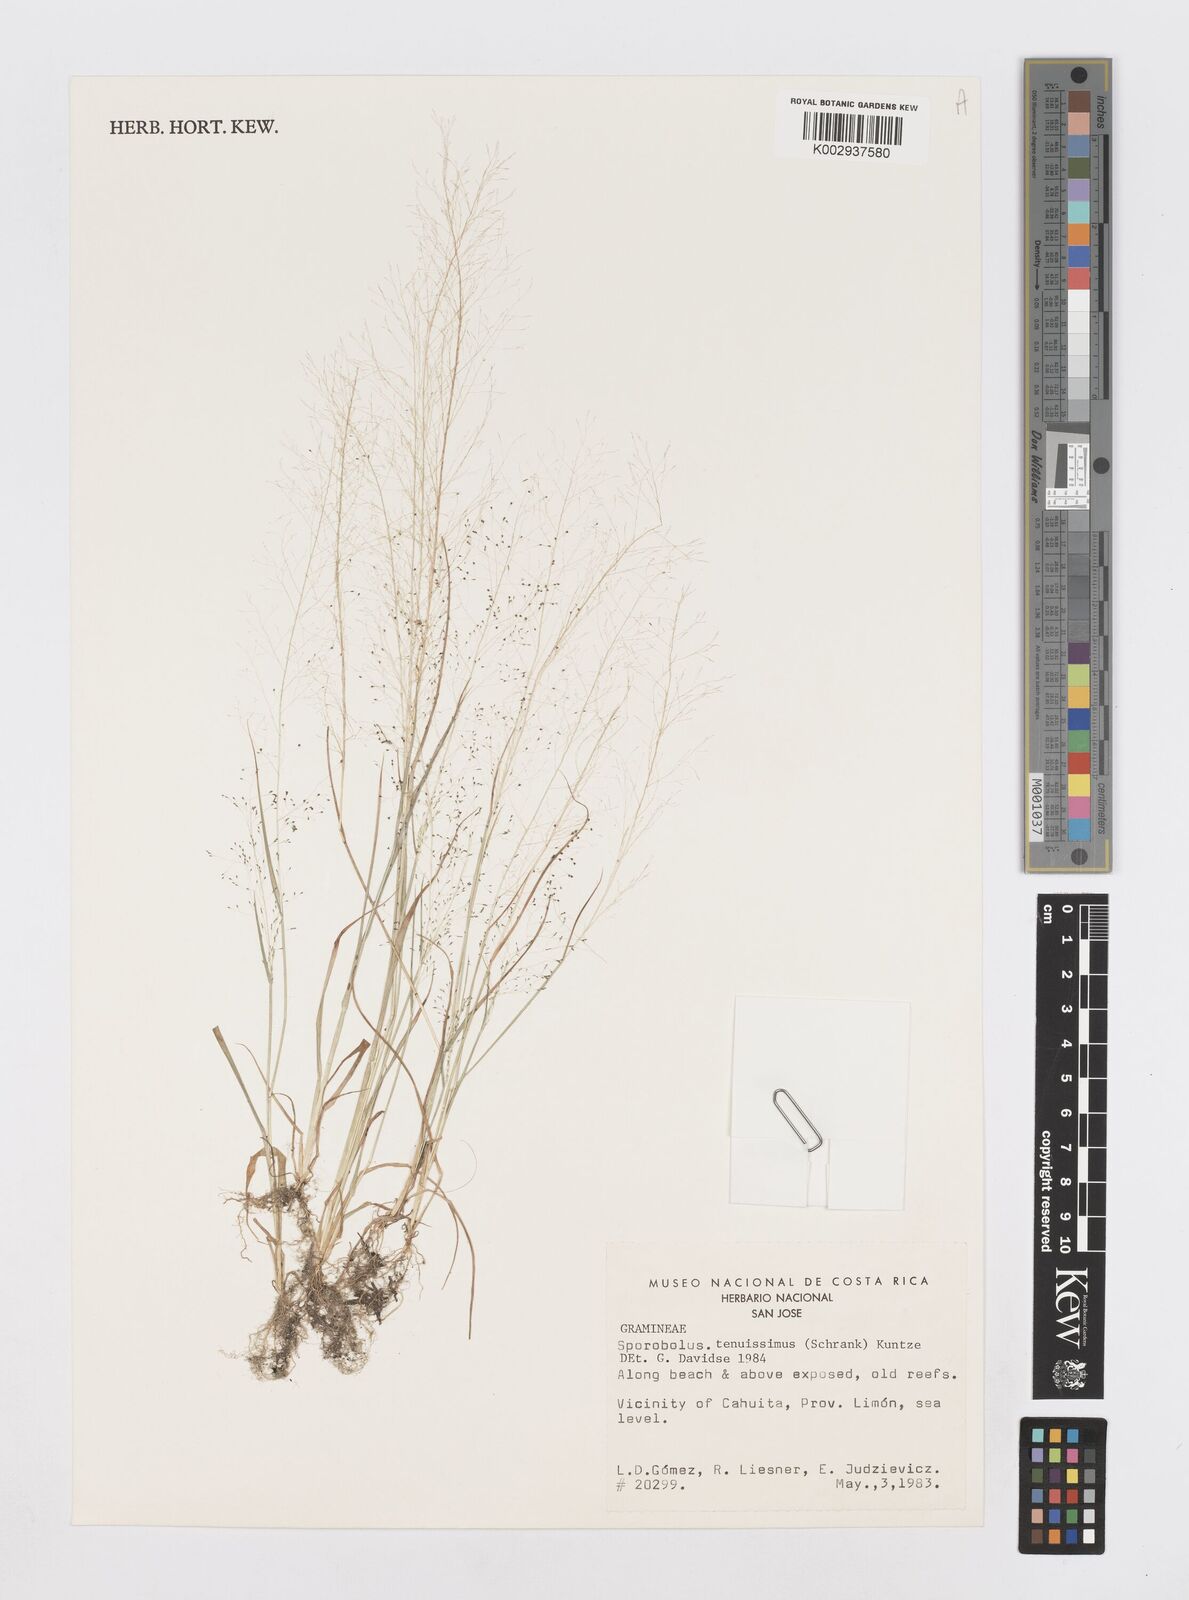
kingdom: Plantae
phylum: Tracheophyta
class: Liliopsida
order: Poales
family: Poaceae
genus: Sporobolus
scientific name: Sporobolus tenuissimus
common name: Tropical dropseed
